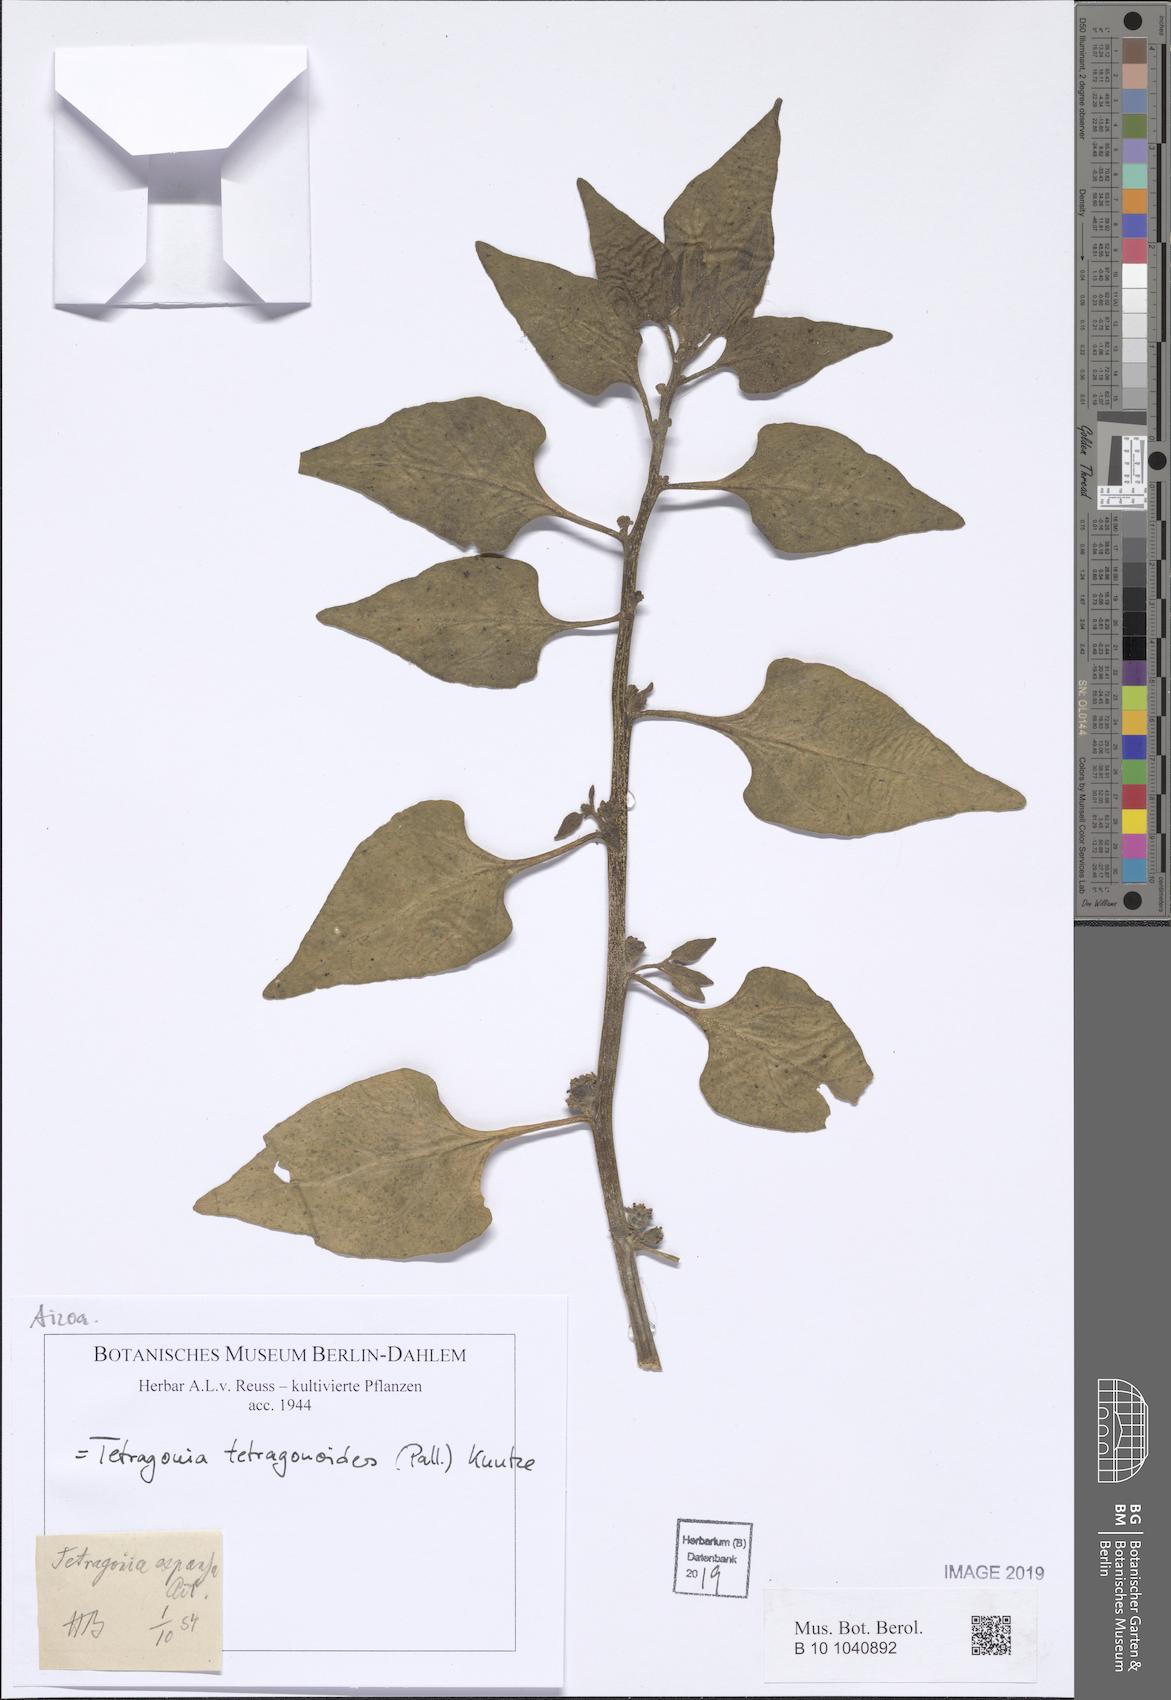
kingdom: Plantae
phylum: Tracheophyta
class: Magnoliopsida
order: Caryophyllales
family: Aizoaceae
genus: Tetragonia
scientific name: Tetragonia tetragonoides
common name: New zealand-spinach
